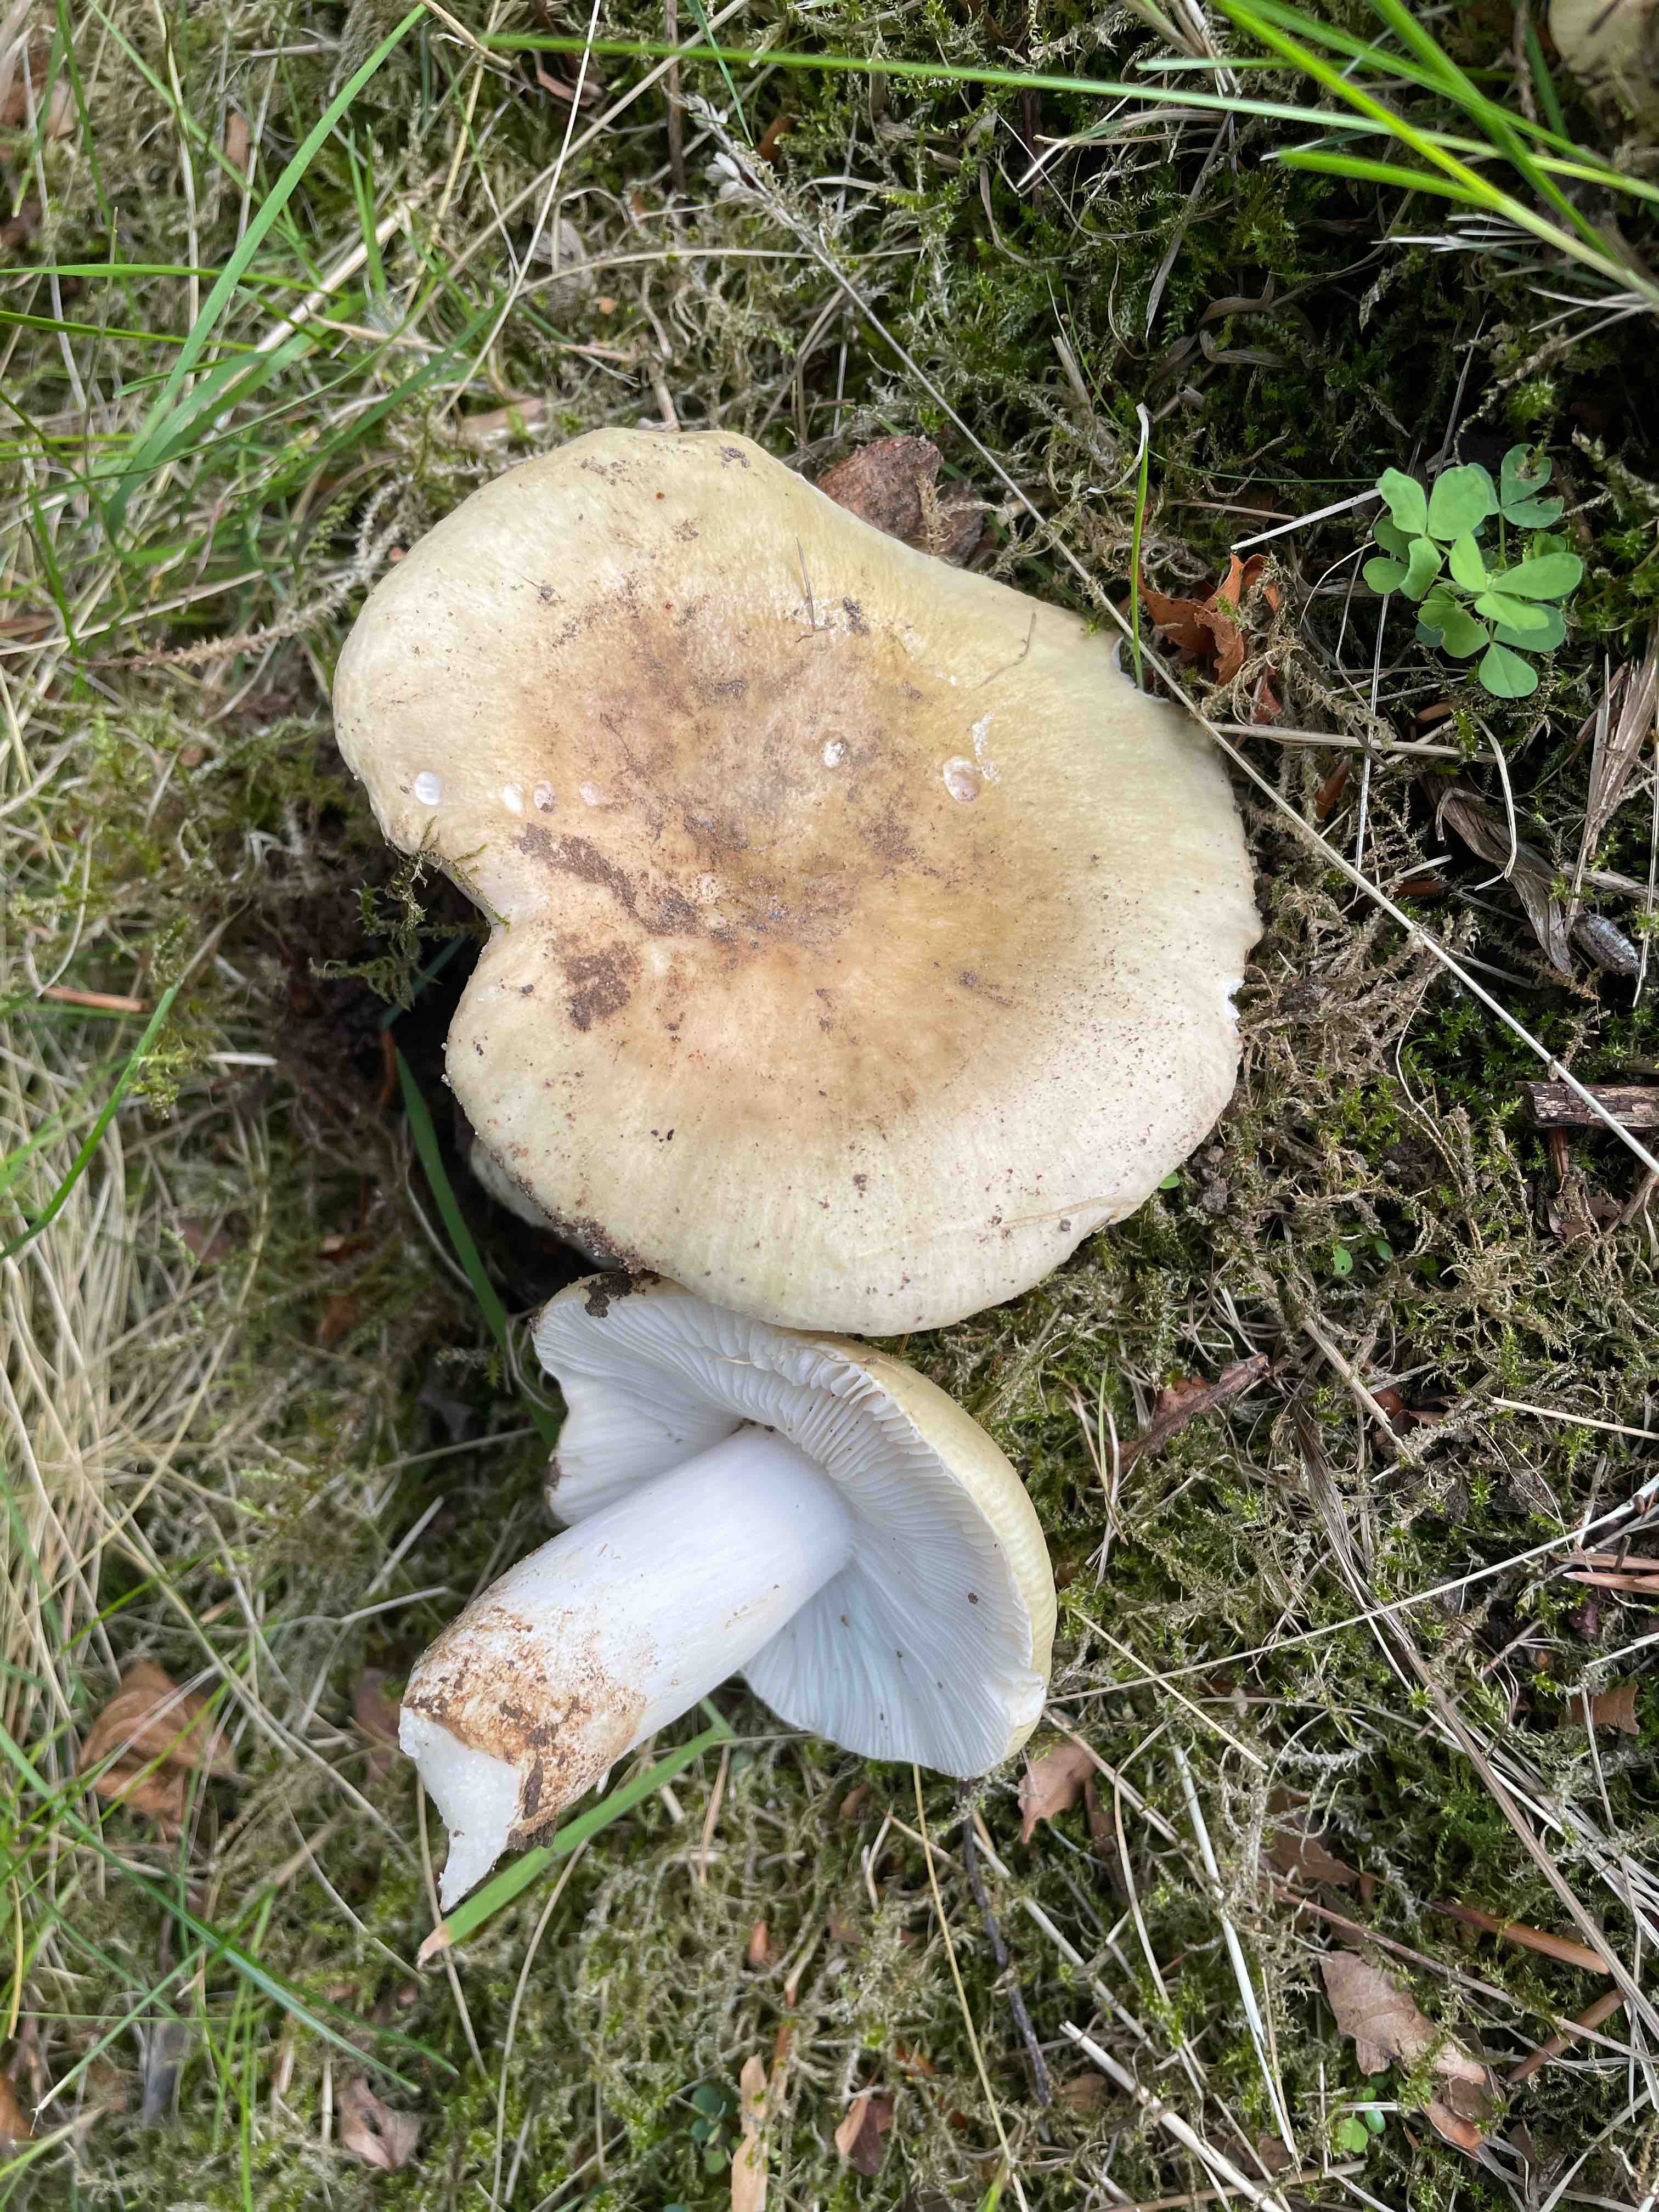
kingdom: Fungi
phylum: Basidiomycota
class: Agaricomycetes
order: Russulales
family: Russulaceae
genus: Russula
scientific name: Russula aeruginea
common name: græsgrøn skørhat
